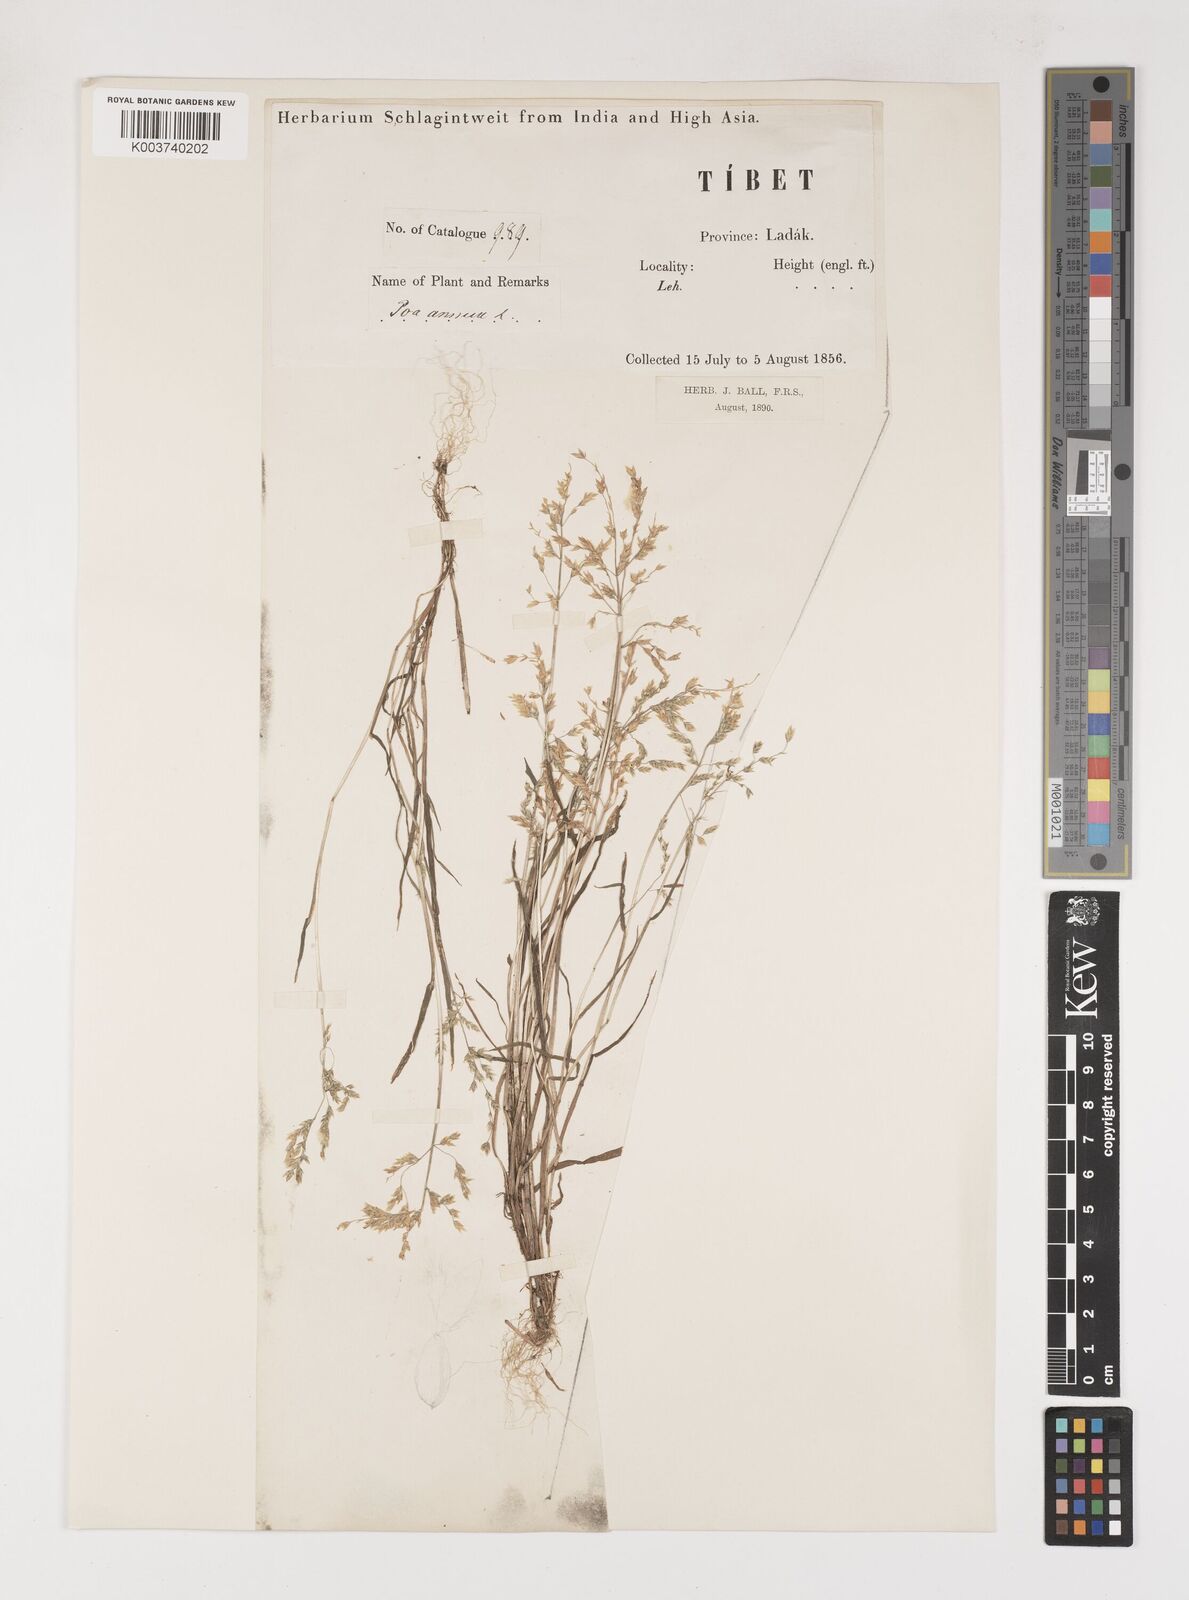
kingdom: Plantae
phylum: Tracheophyta
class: Liliopsida
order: Poales
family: Poaceae
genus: Poa
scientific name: Poa annua
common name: Annual bluegrass
